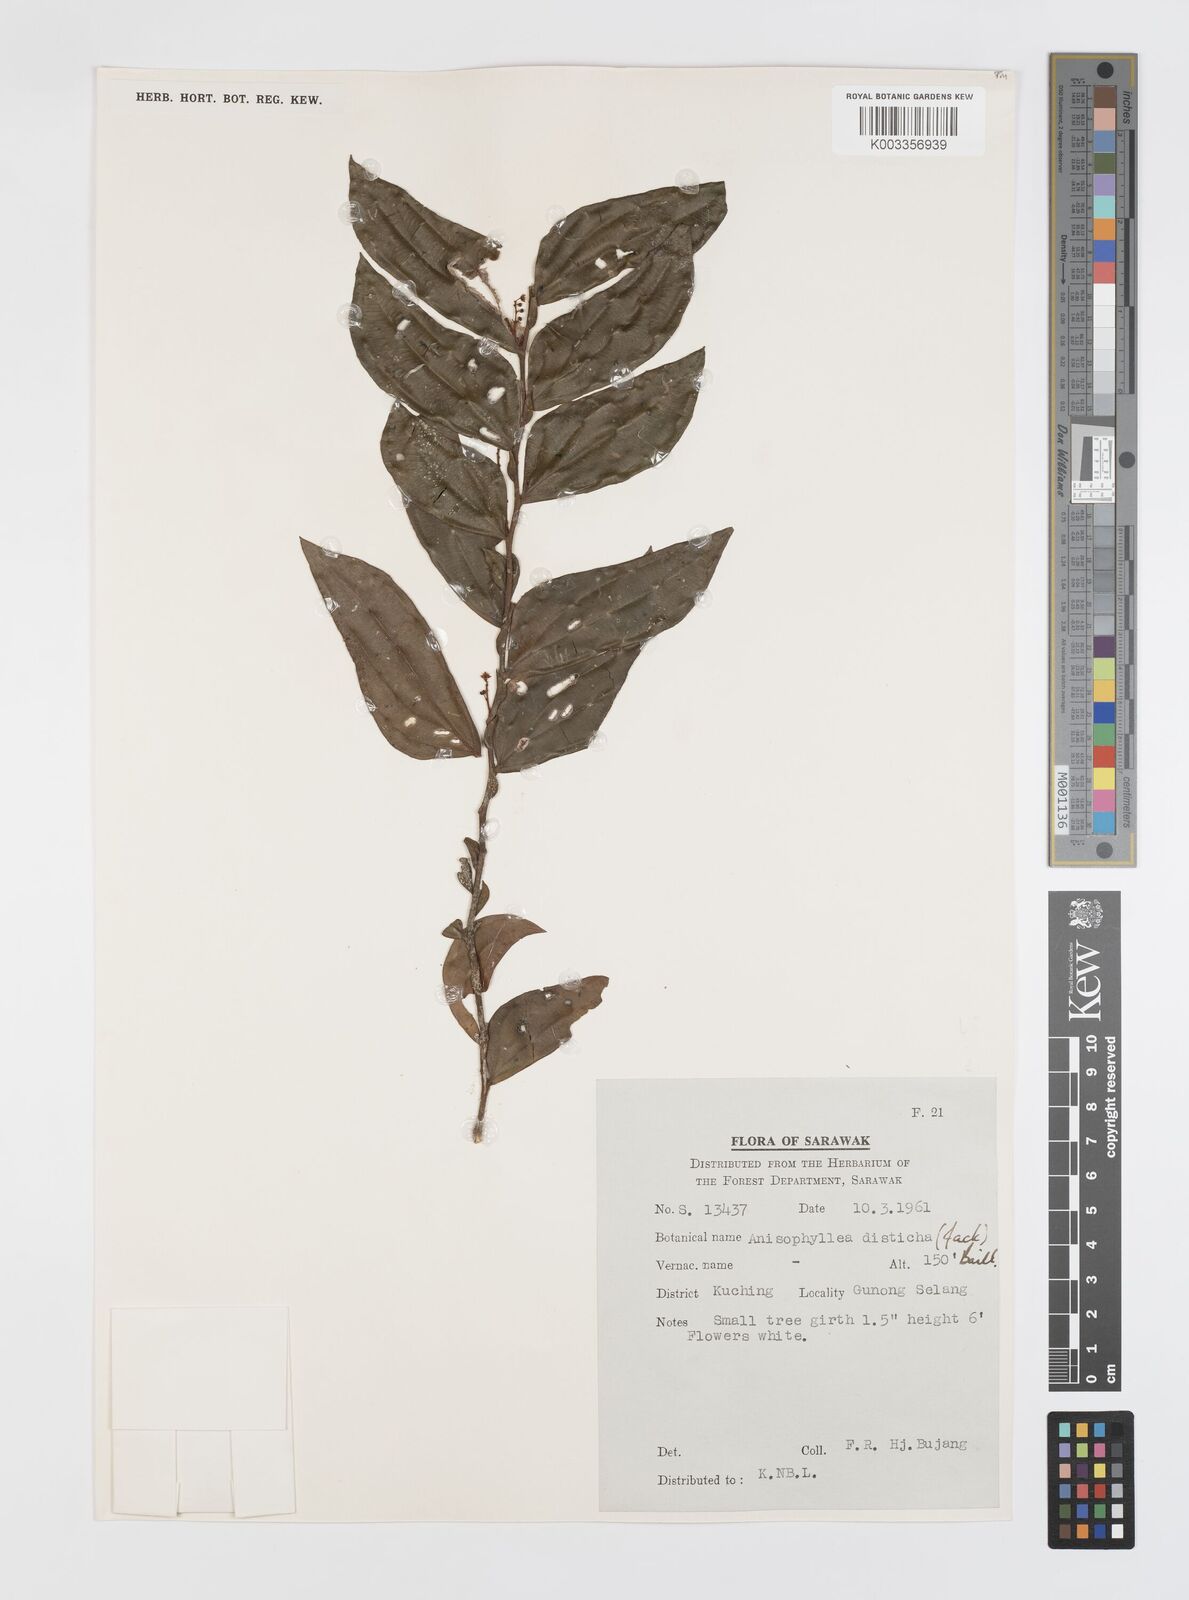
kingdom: Plantae
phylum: Tracheophyta
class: Magnoliopsida
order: Cucurbitales
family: Anisophylleaceae
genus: Anisophyllea
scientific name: Anisophyllea disticha
